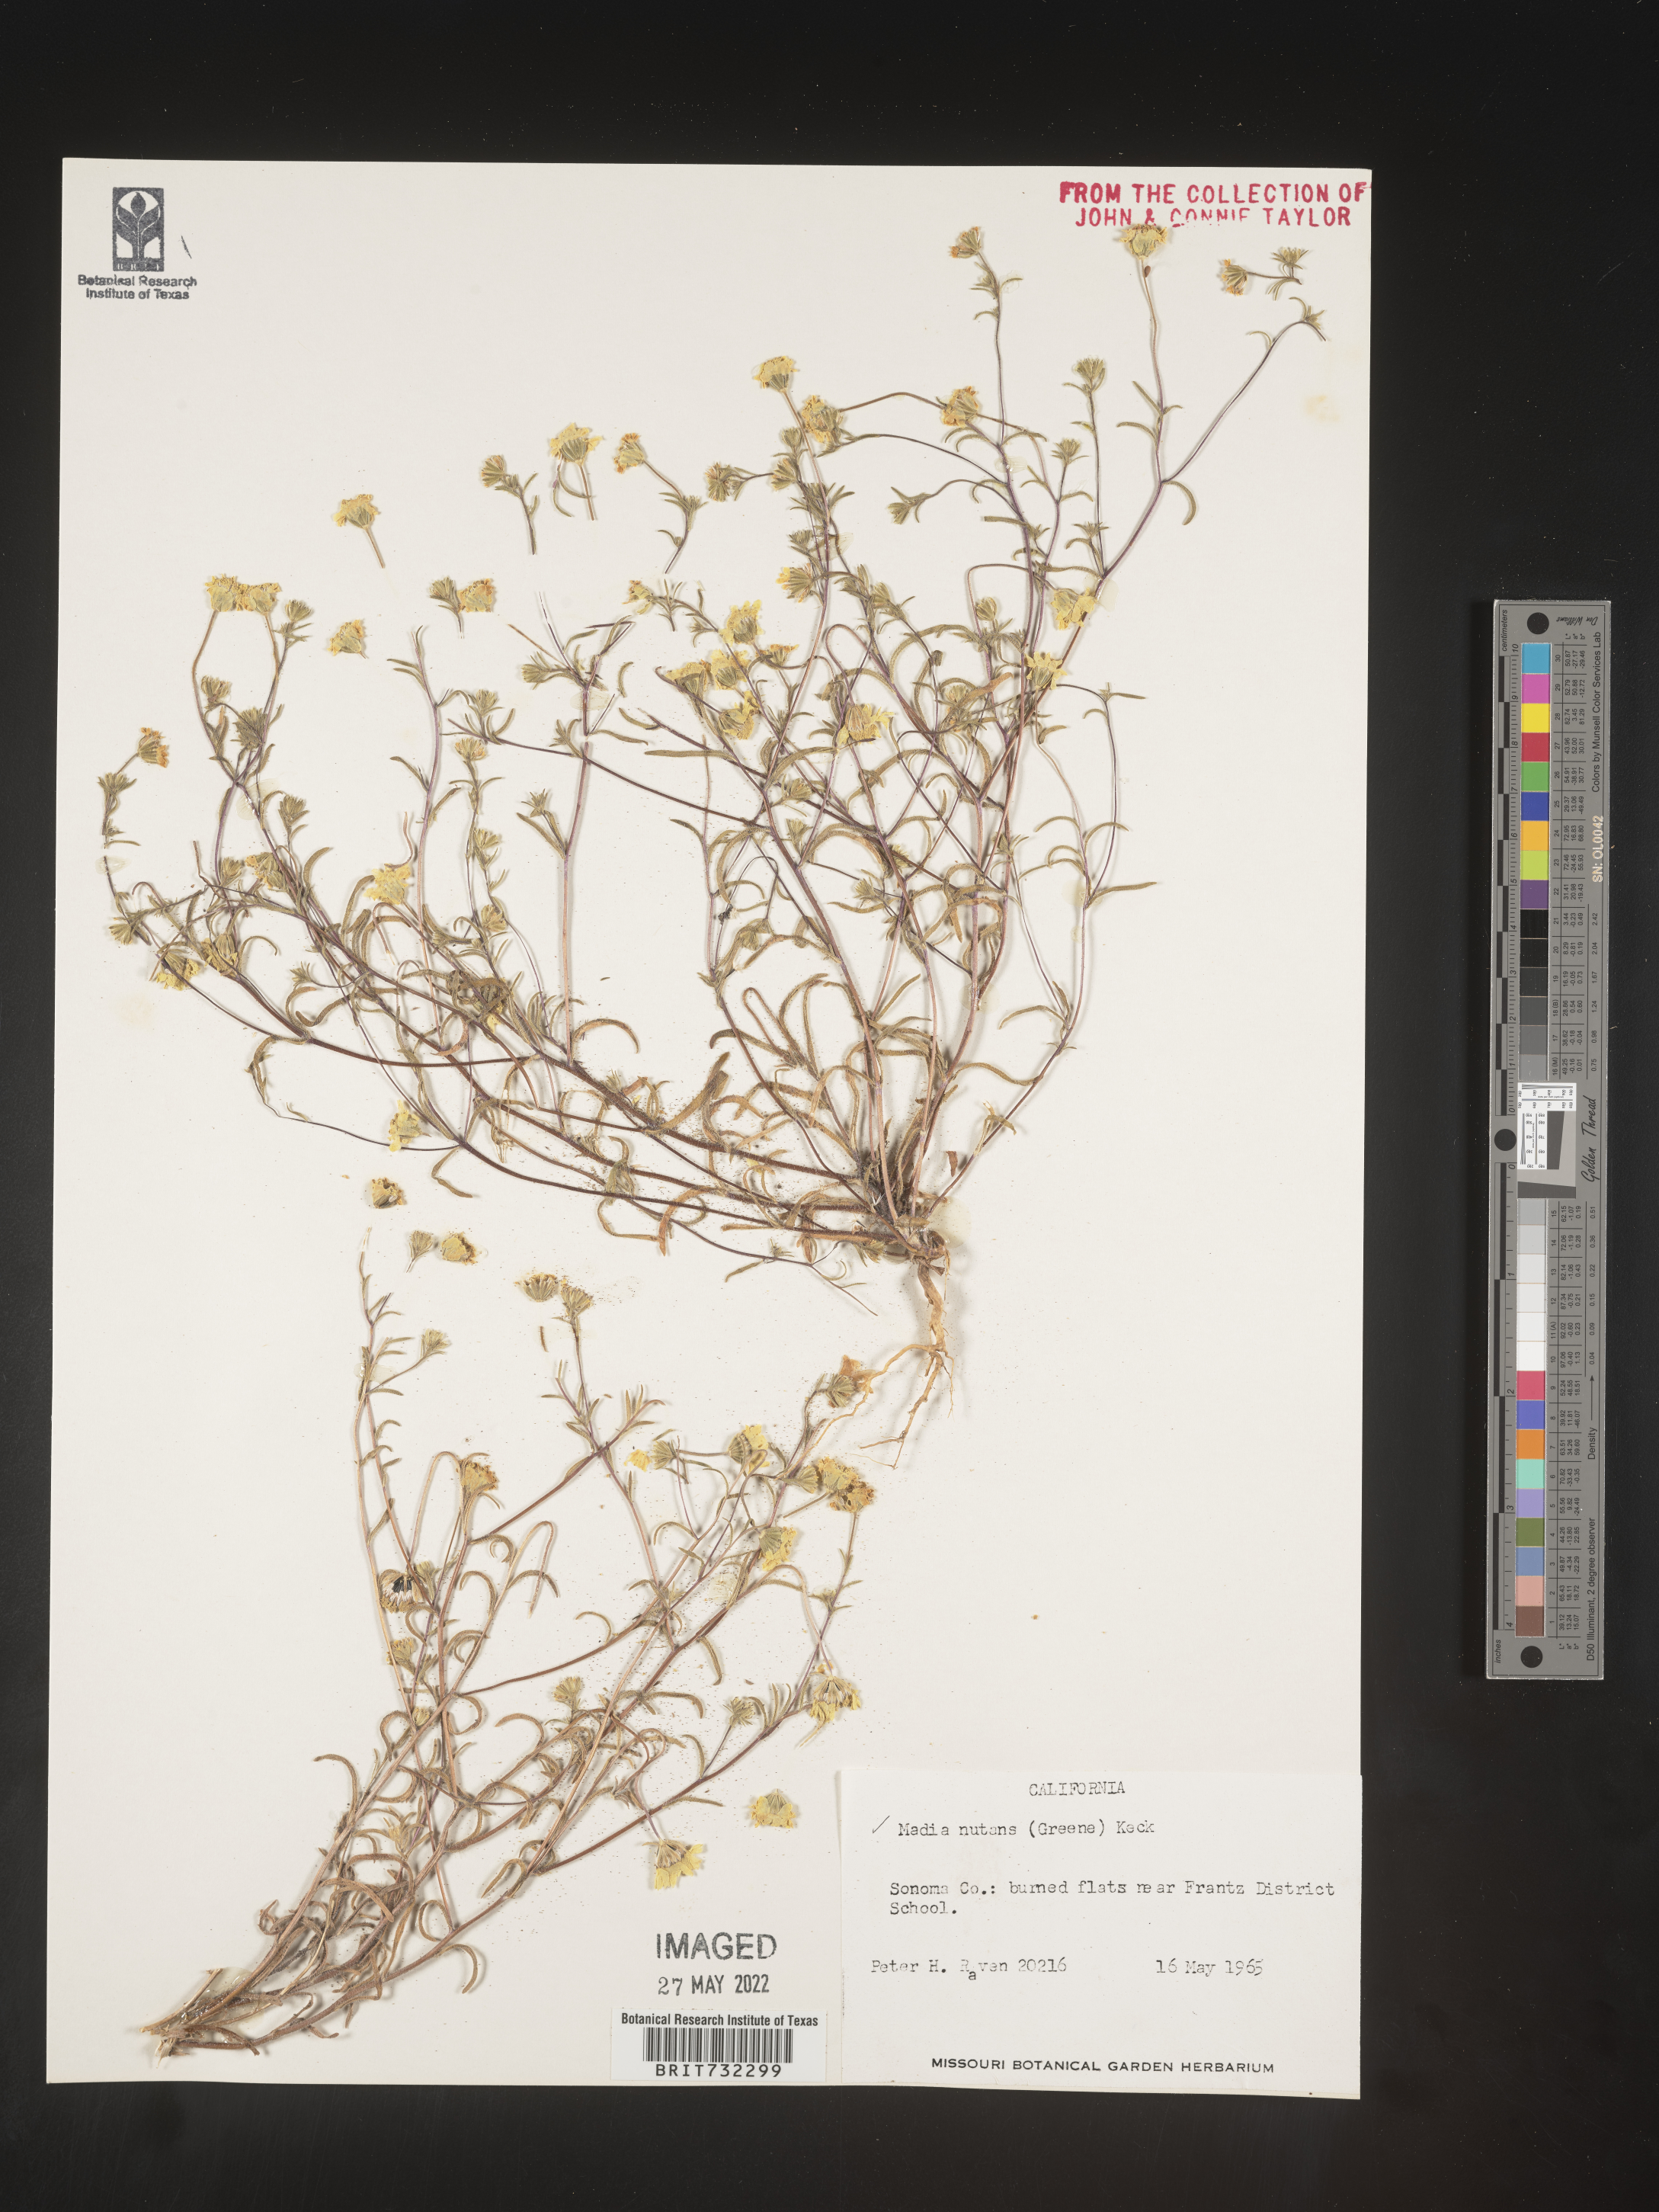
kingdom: Plantae
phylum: Tracheophyta
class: Magnoliopsida
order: Asterales
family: Asteraceae
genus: Madia
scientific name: Madia
